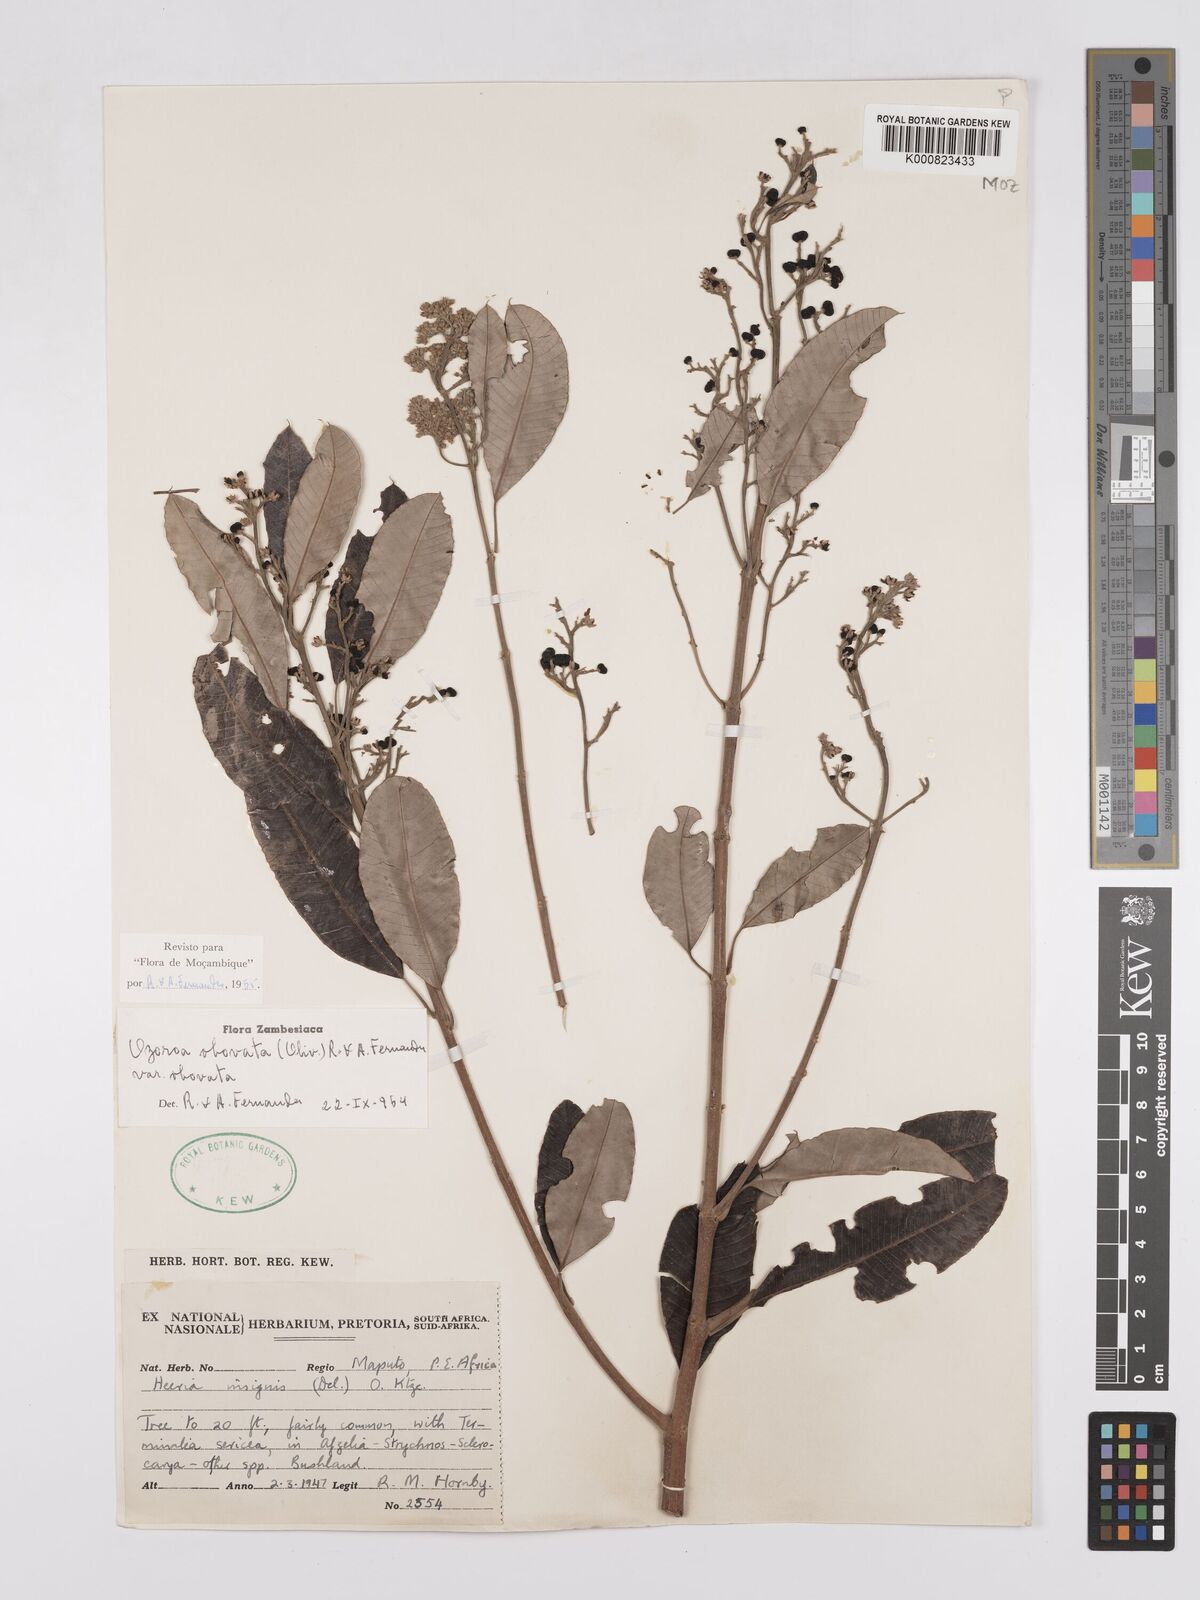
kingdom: Plantae
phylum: Tracheophyta
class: Magnoliopsida
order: Sapindales
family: Anacardiaceae
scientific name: Anacardiaceae
